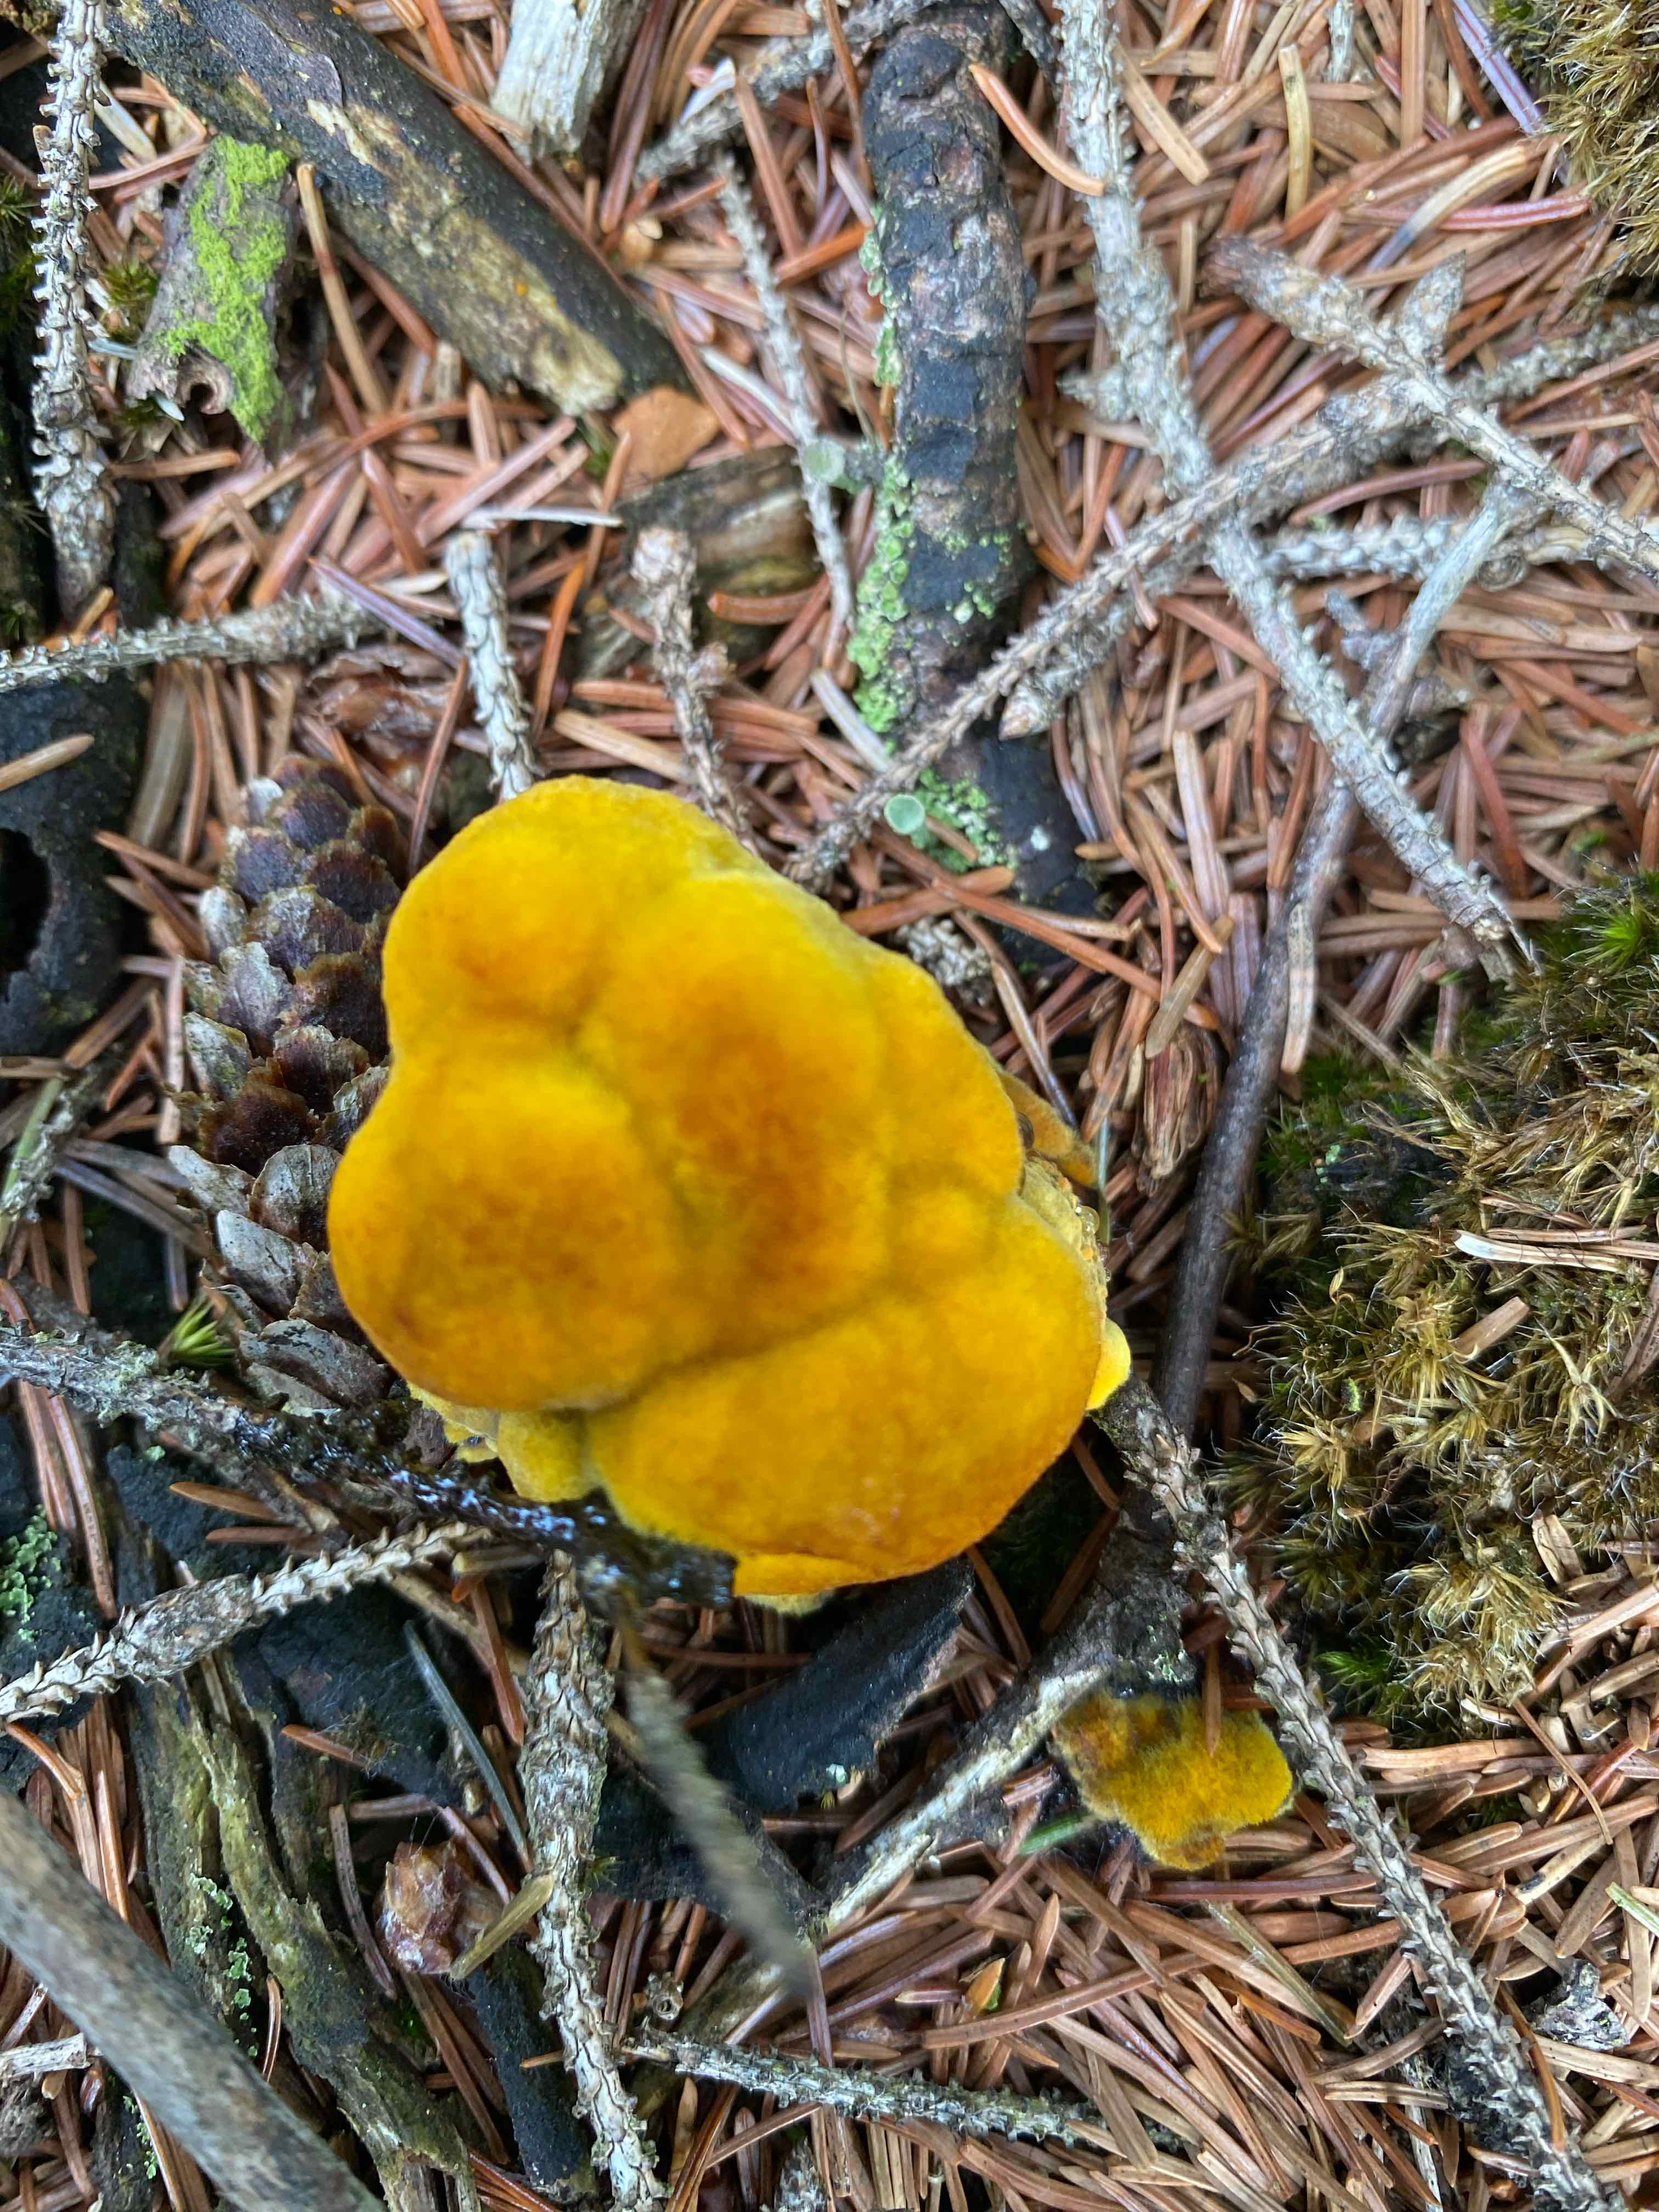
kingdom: Fungi
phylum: Basidiomycota
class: Agaricomycetes
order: Polyporales
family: Laetiporaceae
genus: Phaeolus
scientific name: Phaeolus schweinitzii
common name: brunporesvamp
